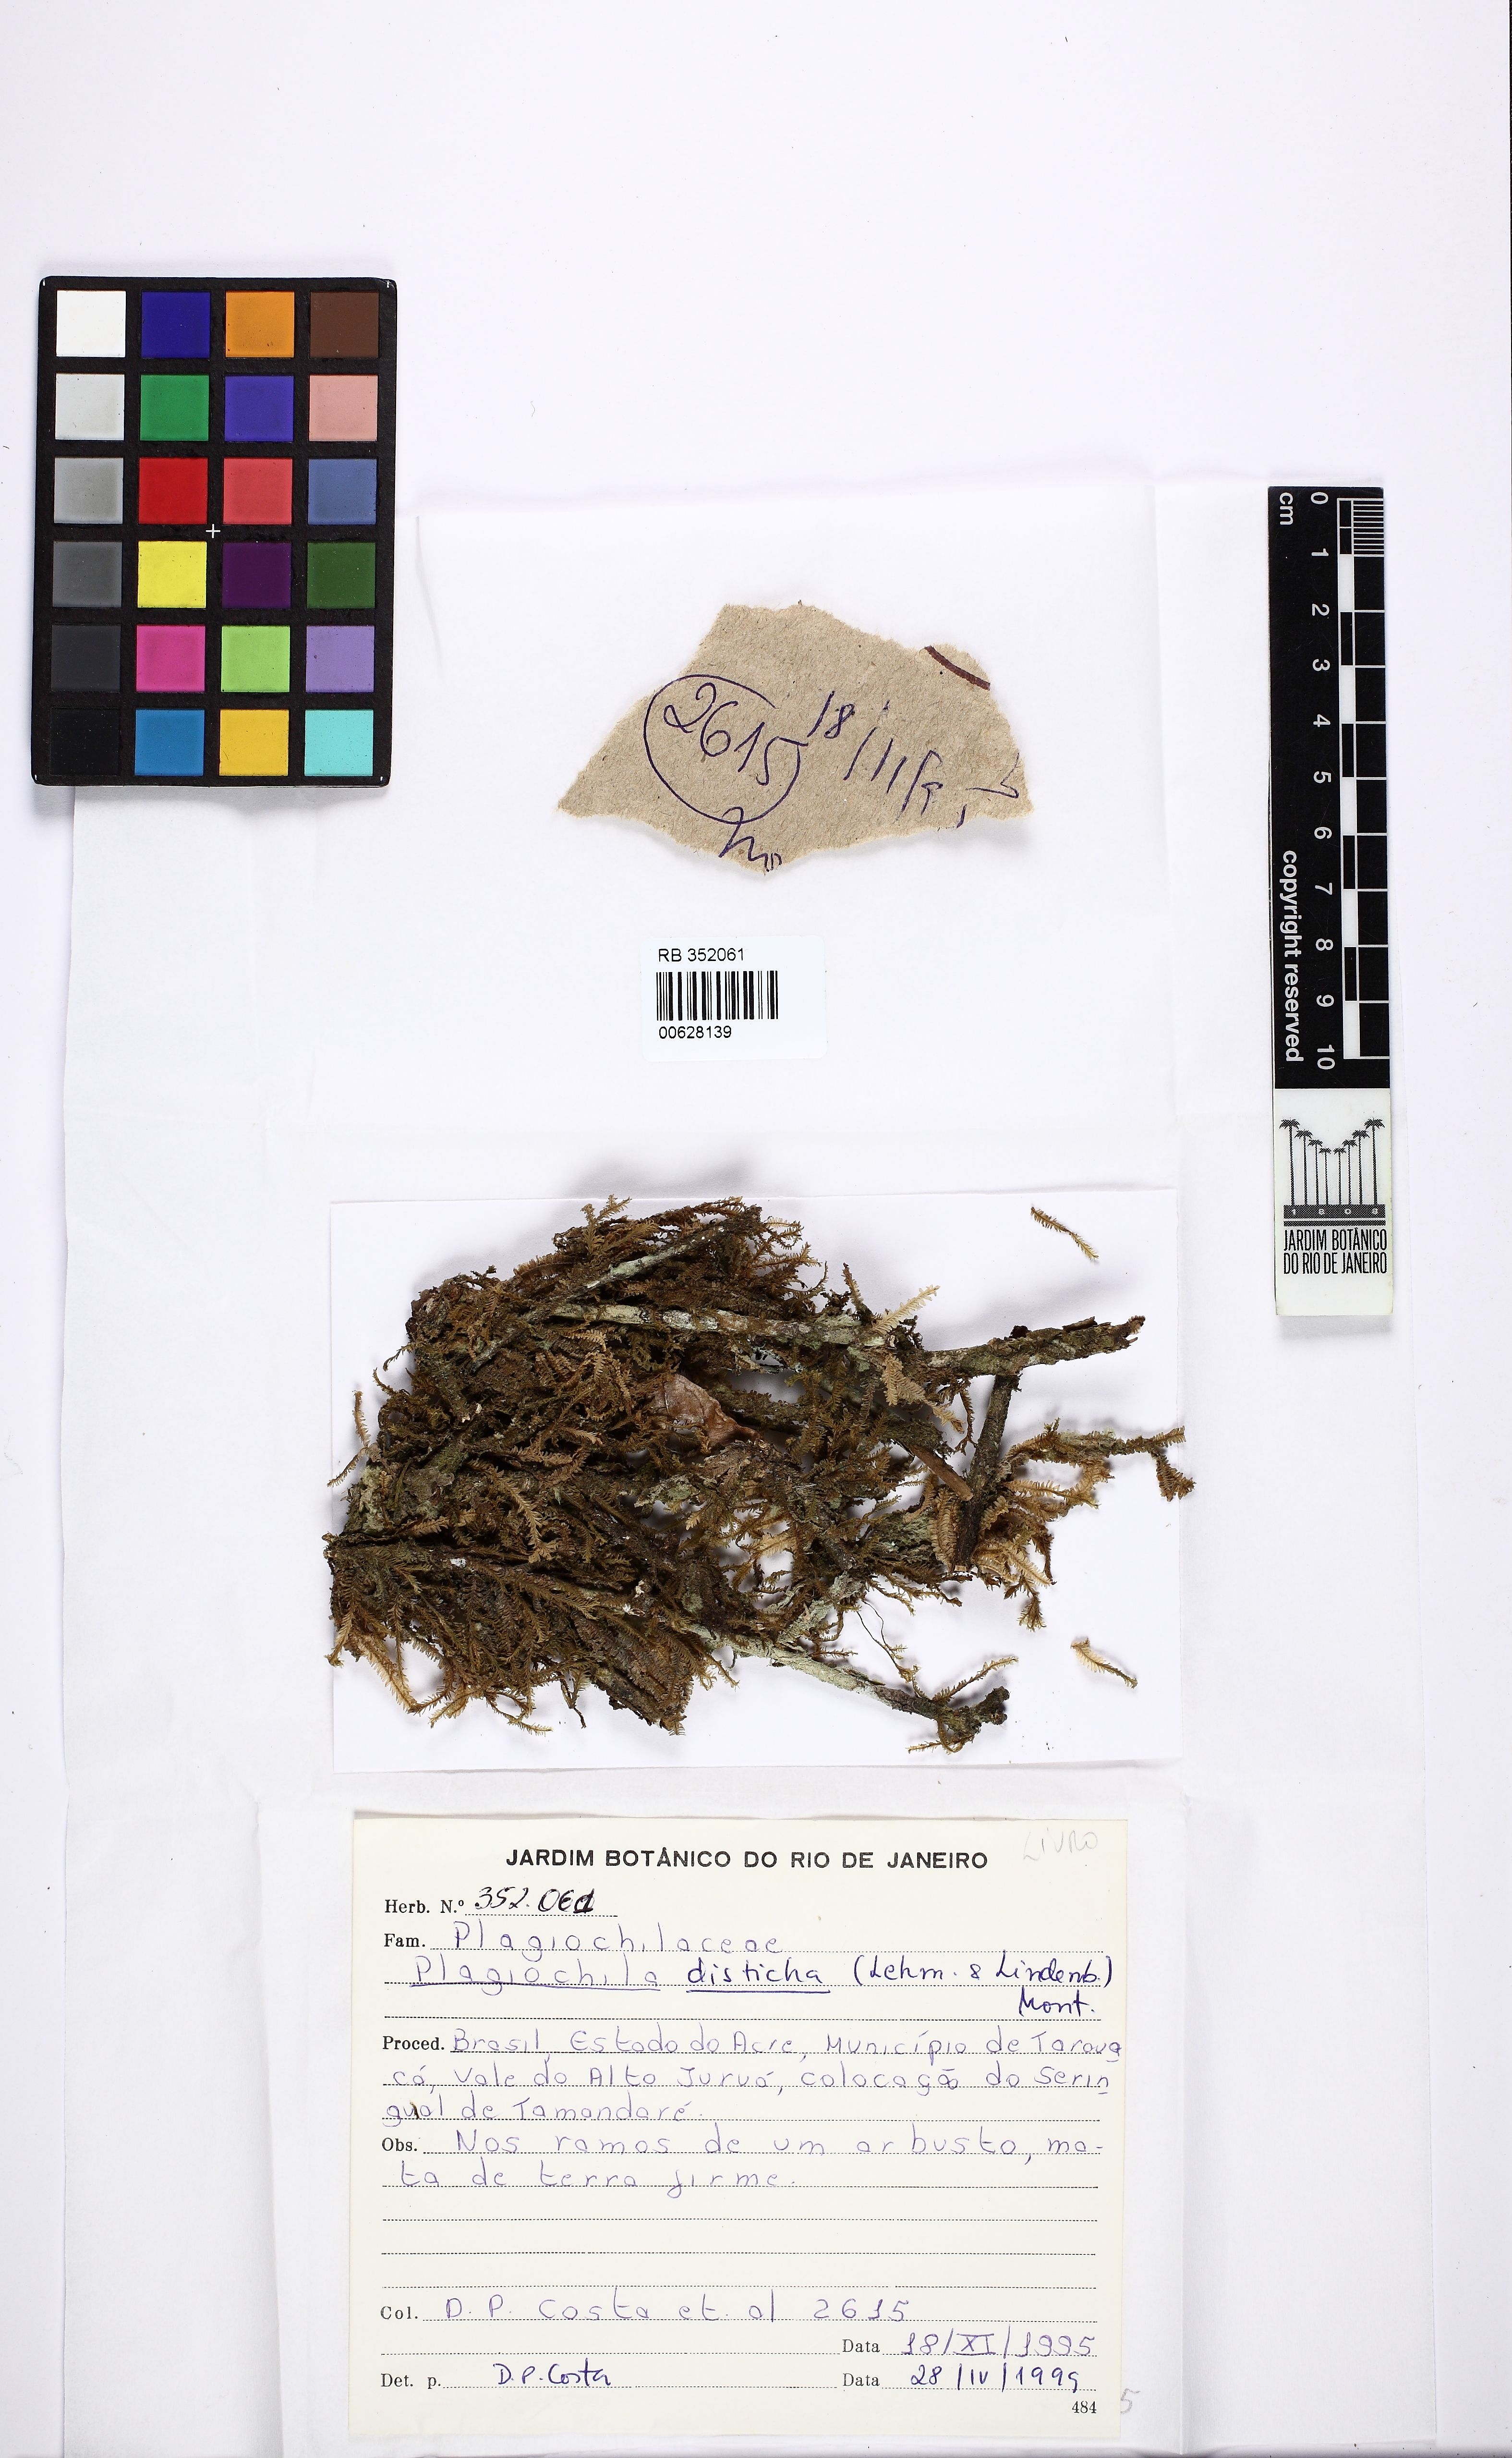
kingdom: Plantae
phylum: Marchantiophyta
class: Jungermanniopsida
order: Jungermanniales
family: Plagiochilaceae
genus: Plagiochila
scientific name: Plagiochila disticha
